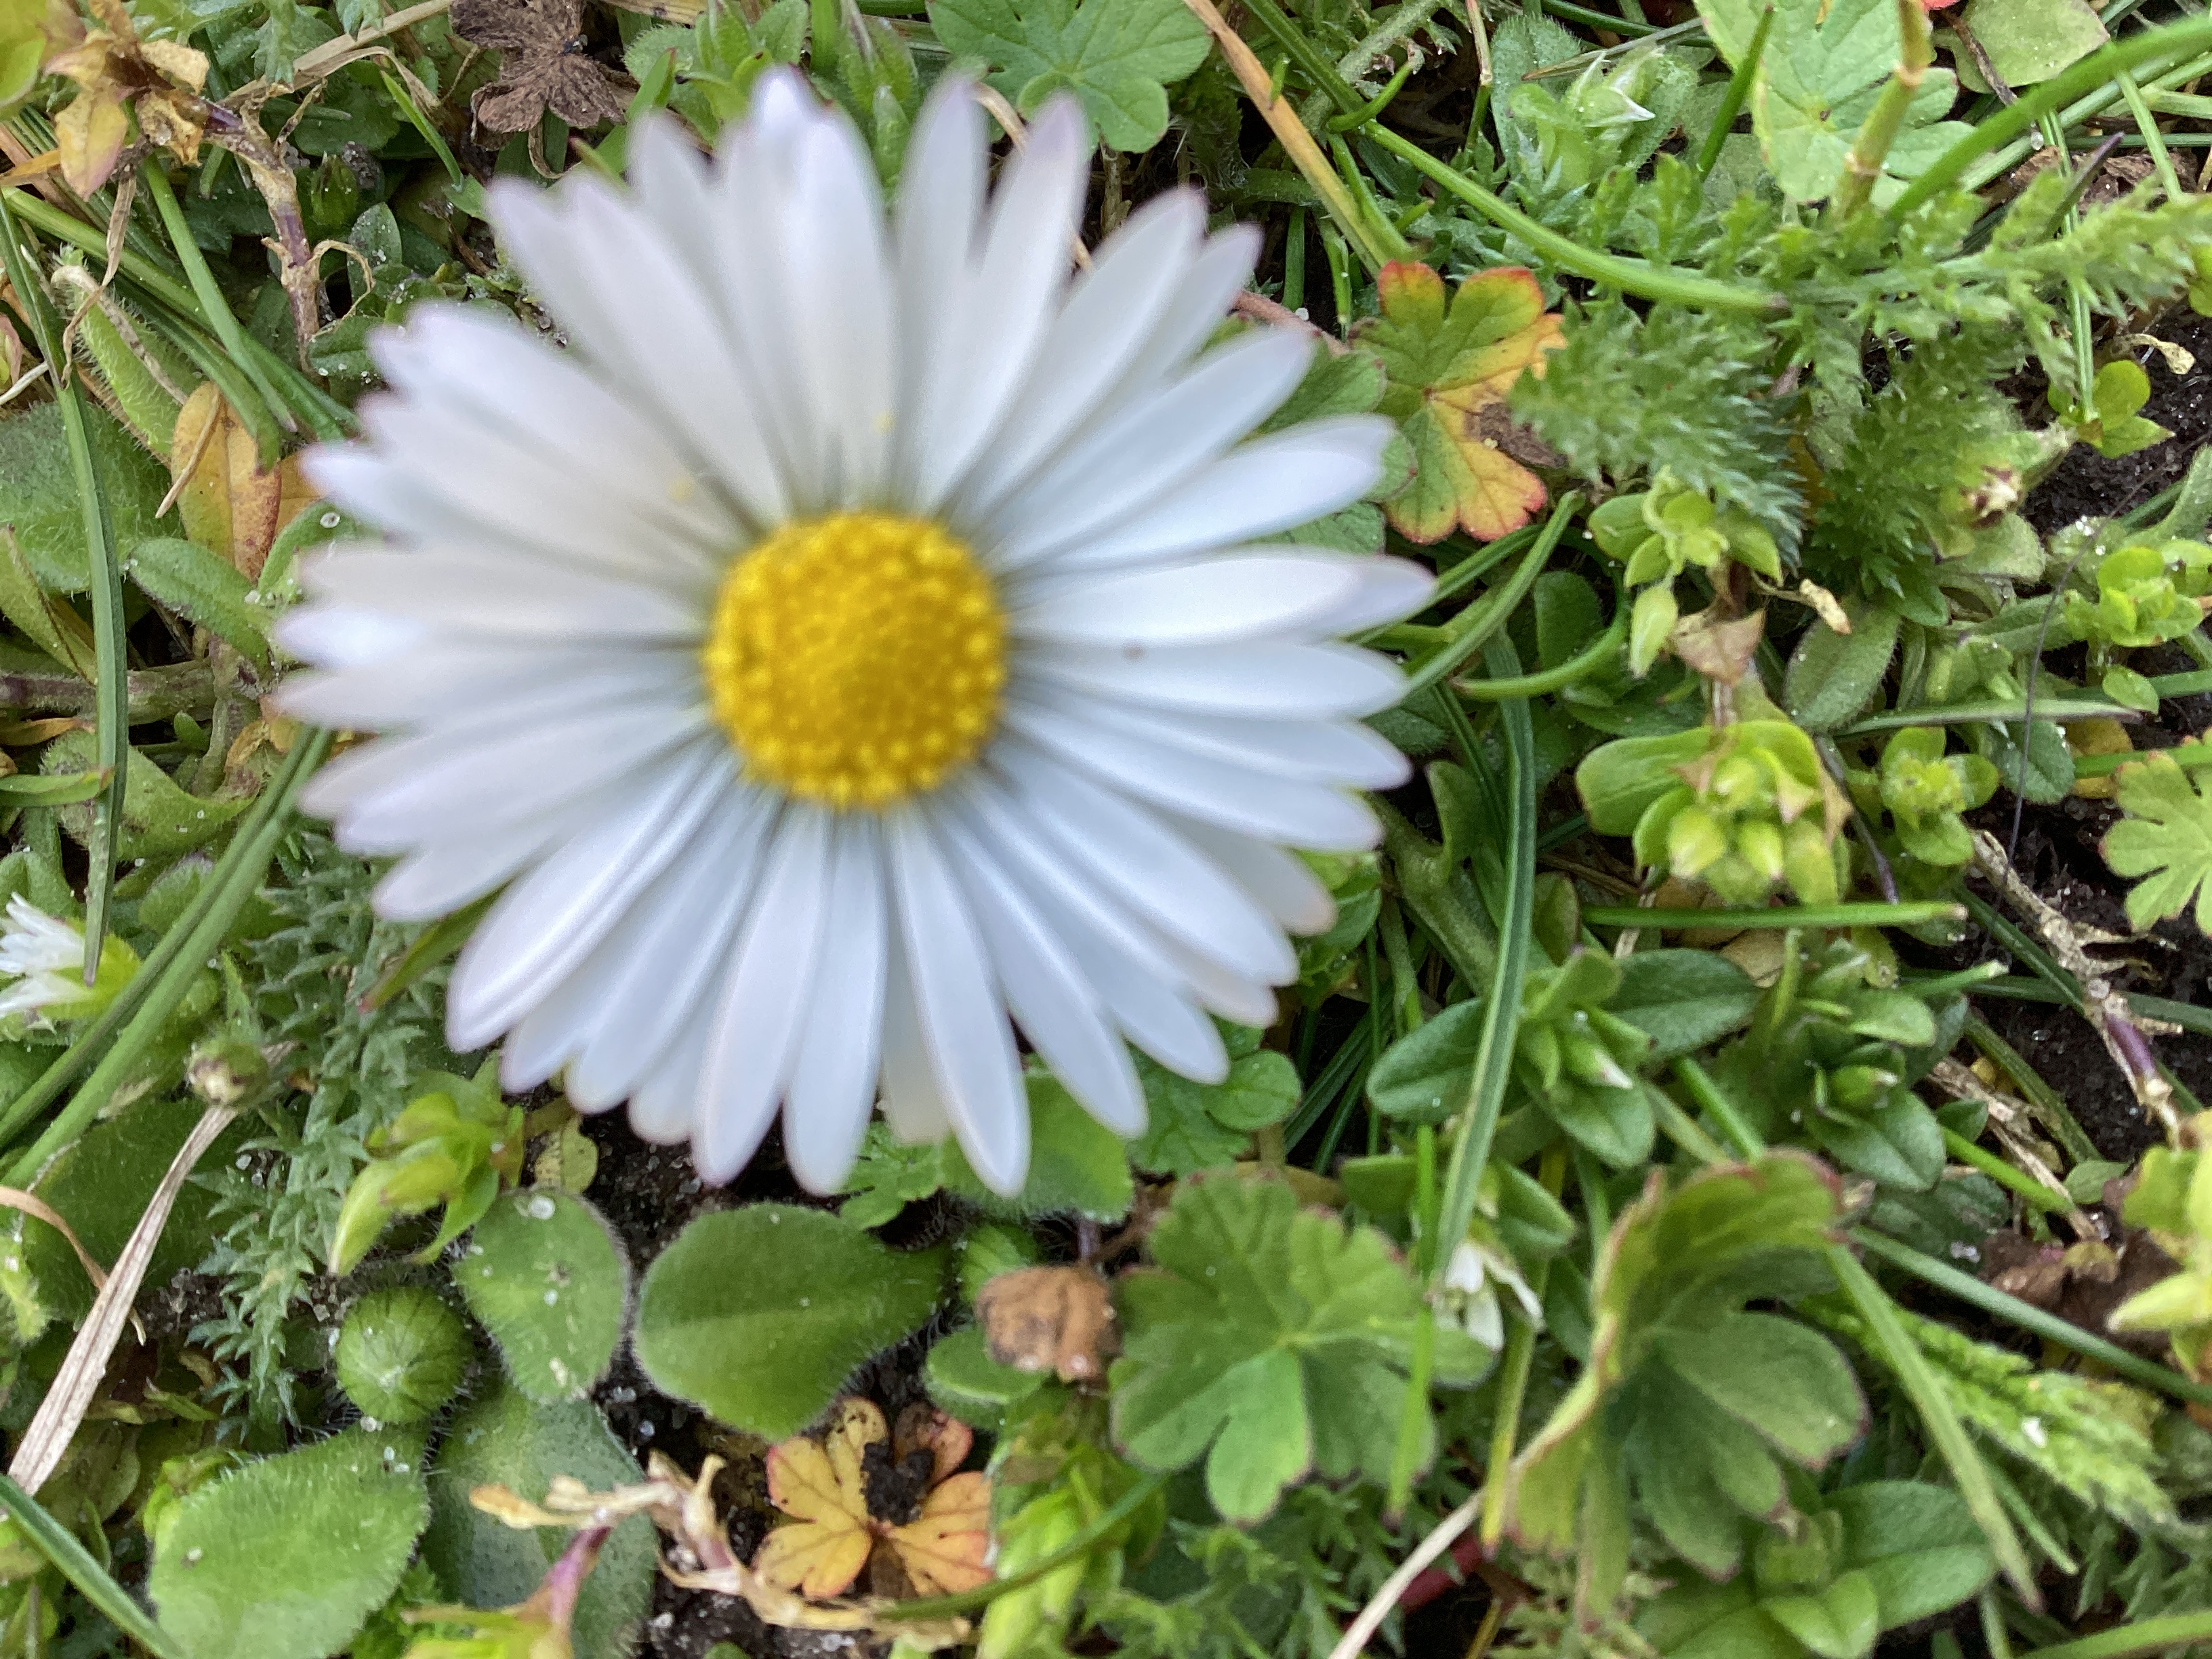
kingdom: Plantae
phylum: Tracheophyta
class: Magnoliopsida
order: Asterales
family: Asteraceae
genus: Bellis
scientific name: Bellis perennis
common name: Tusindfryd
